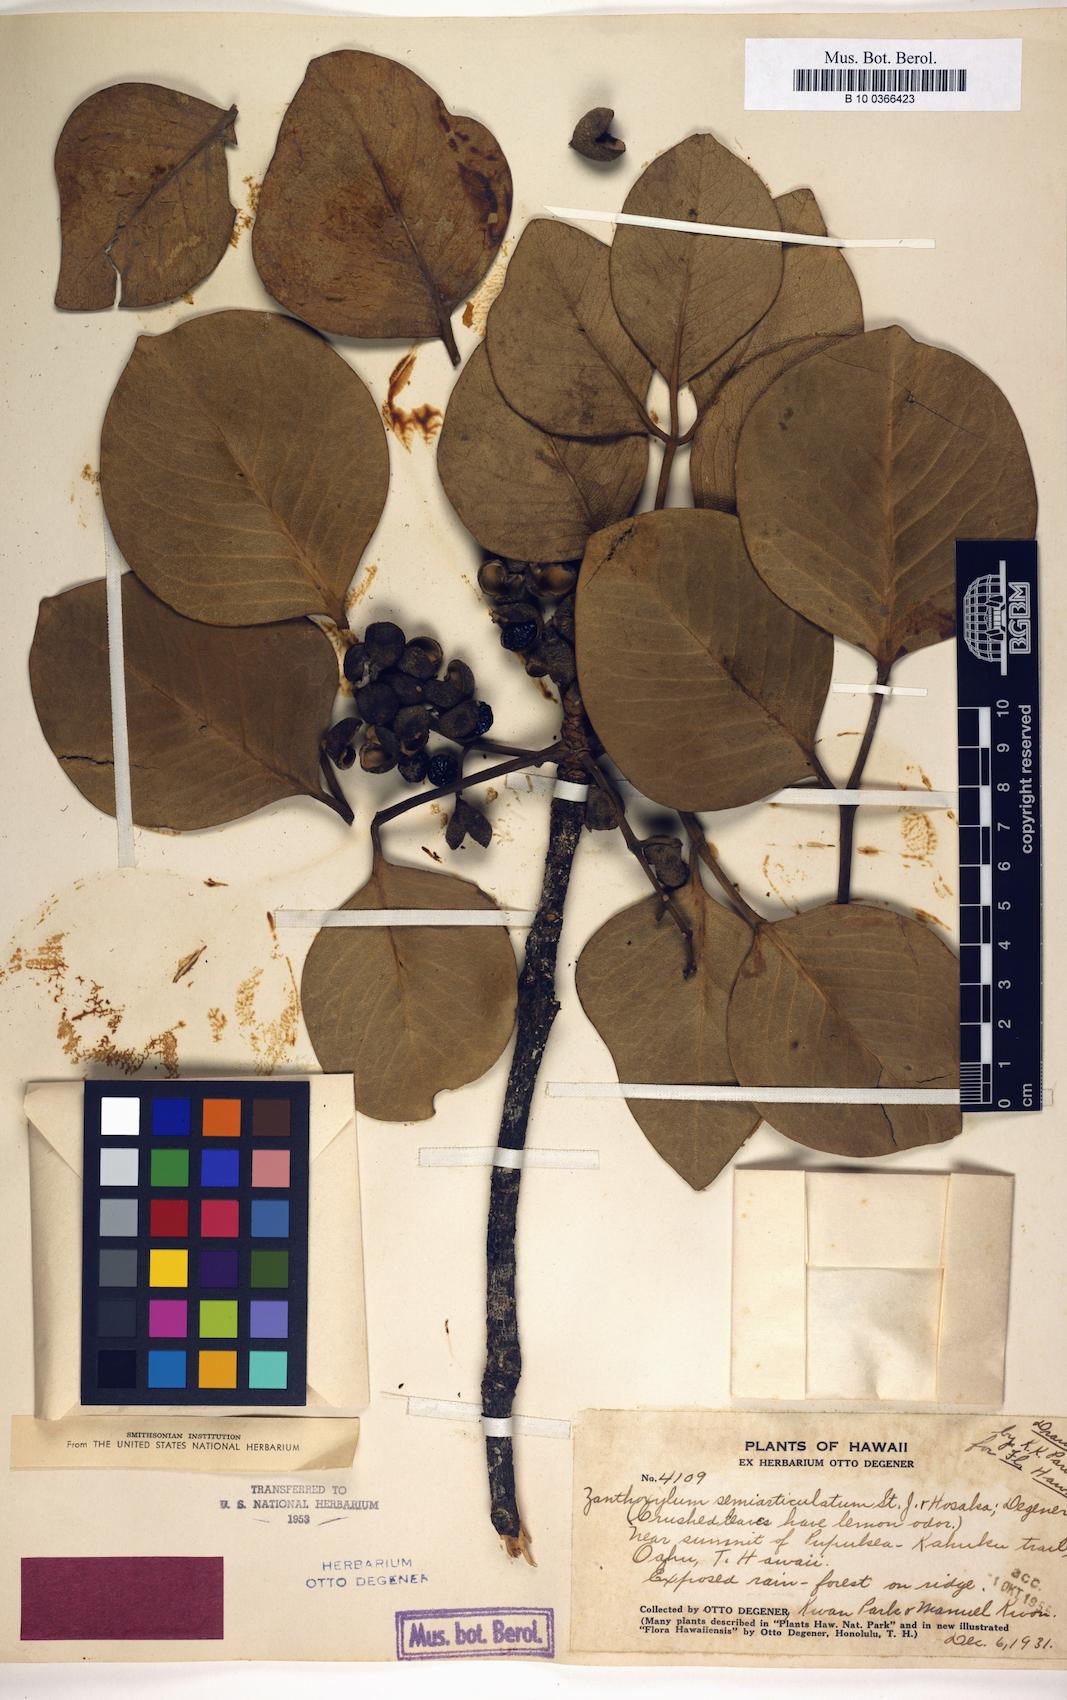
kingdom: Plantae
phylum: Tracheophyta
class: Magnoliopsida
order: Sapindales
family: Rutaceae
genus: Zanthoxylum
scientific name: Zanthoxylum kauaense
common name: Kauai prickly-ash
